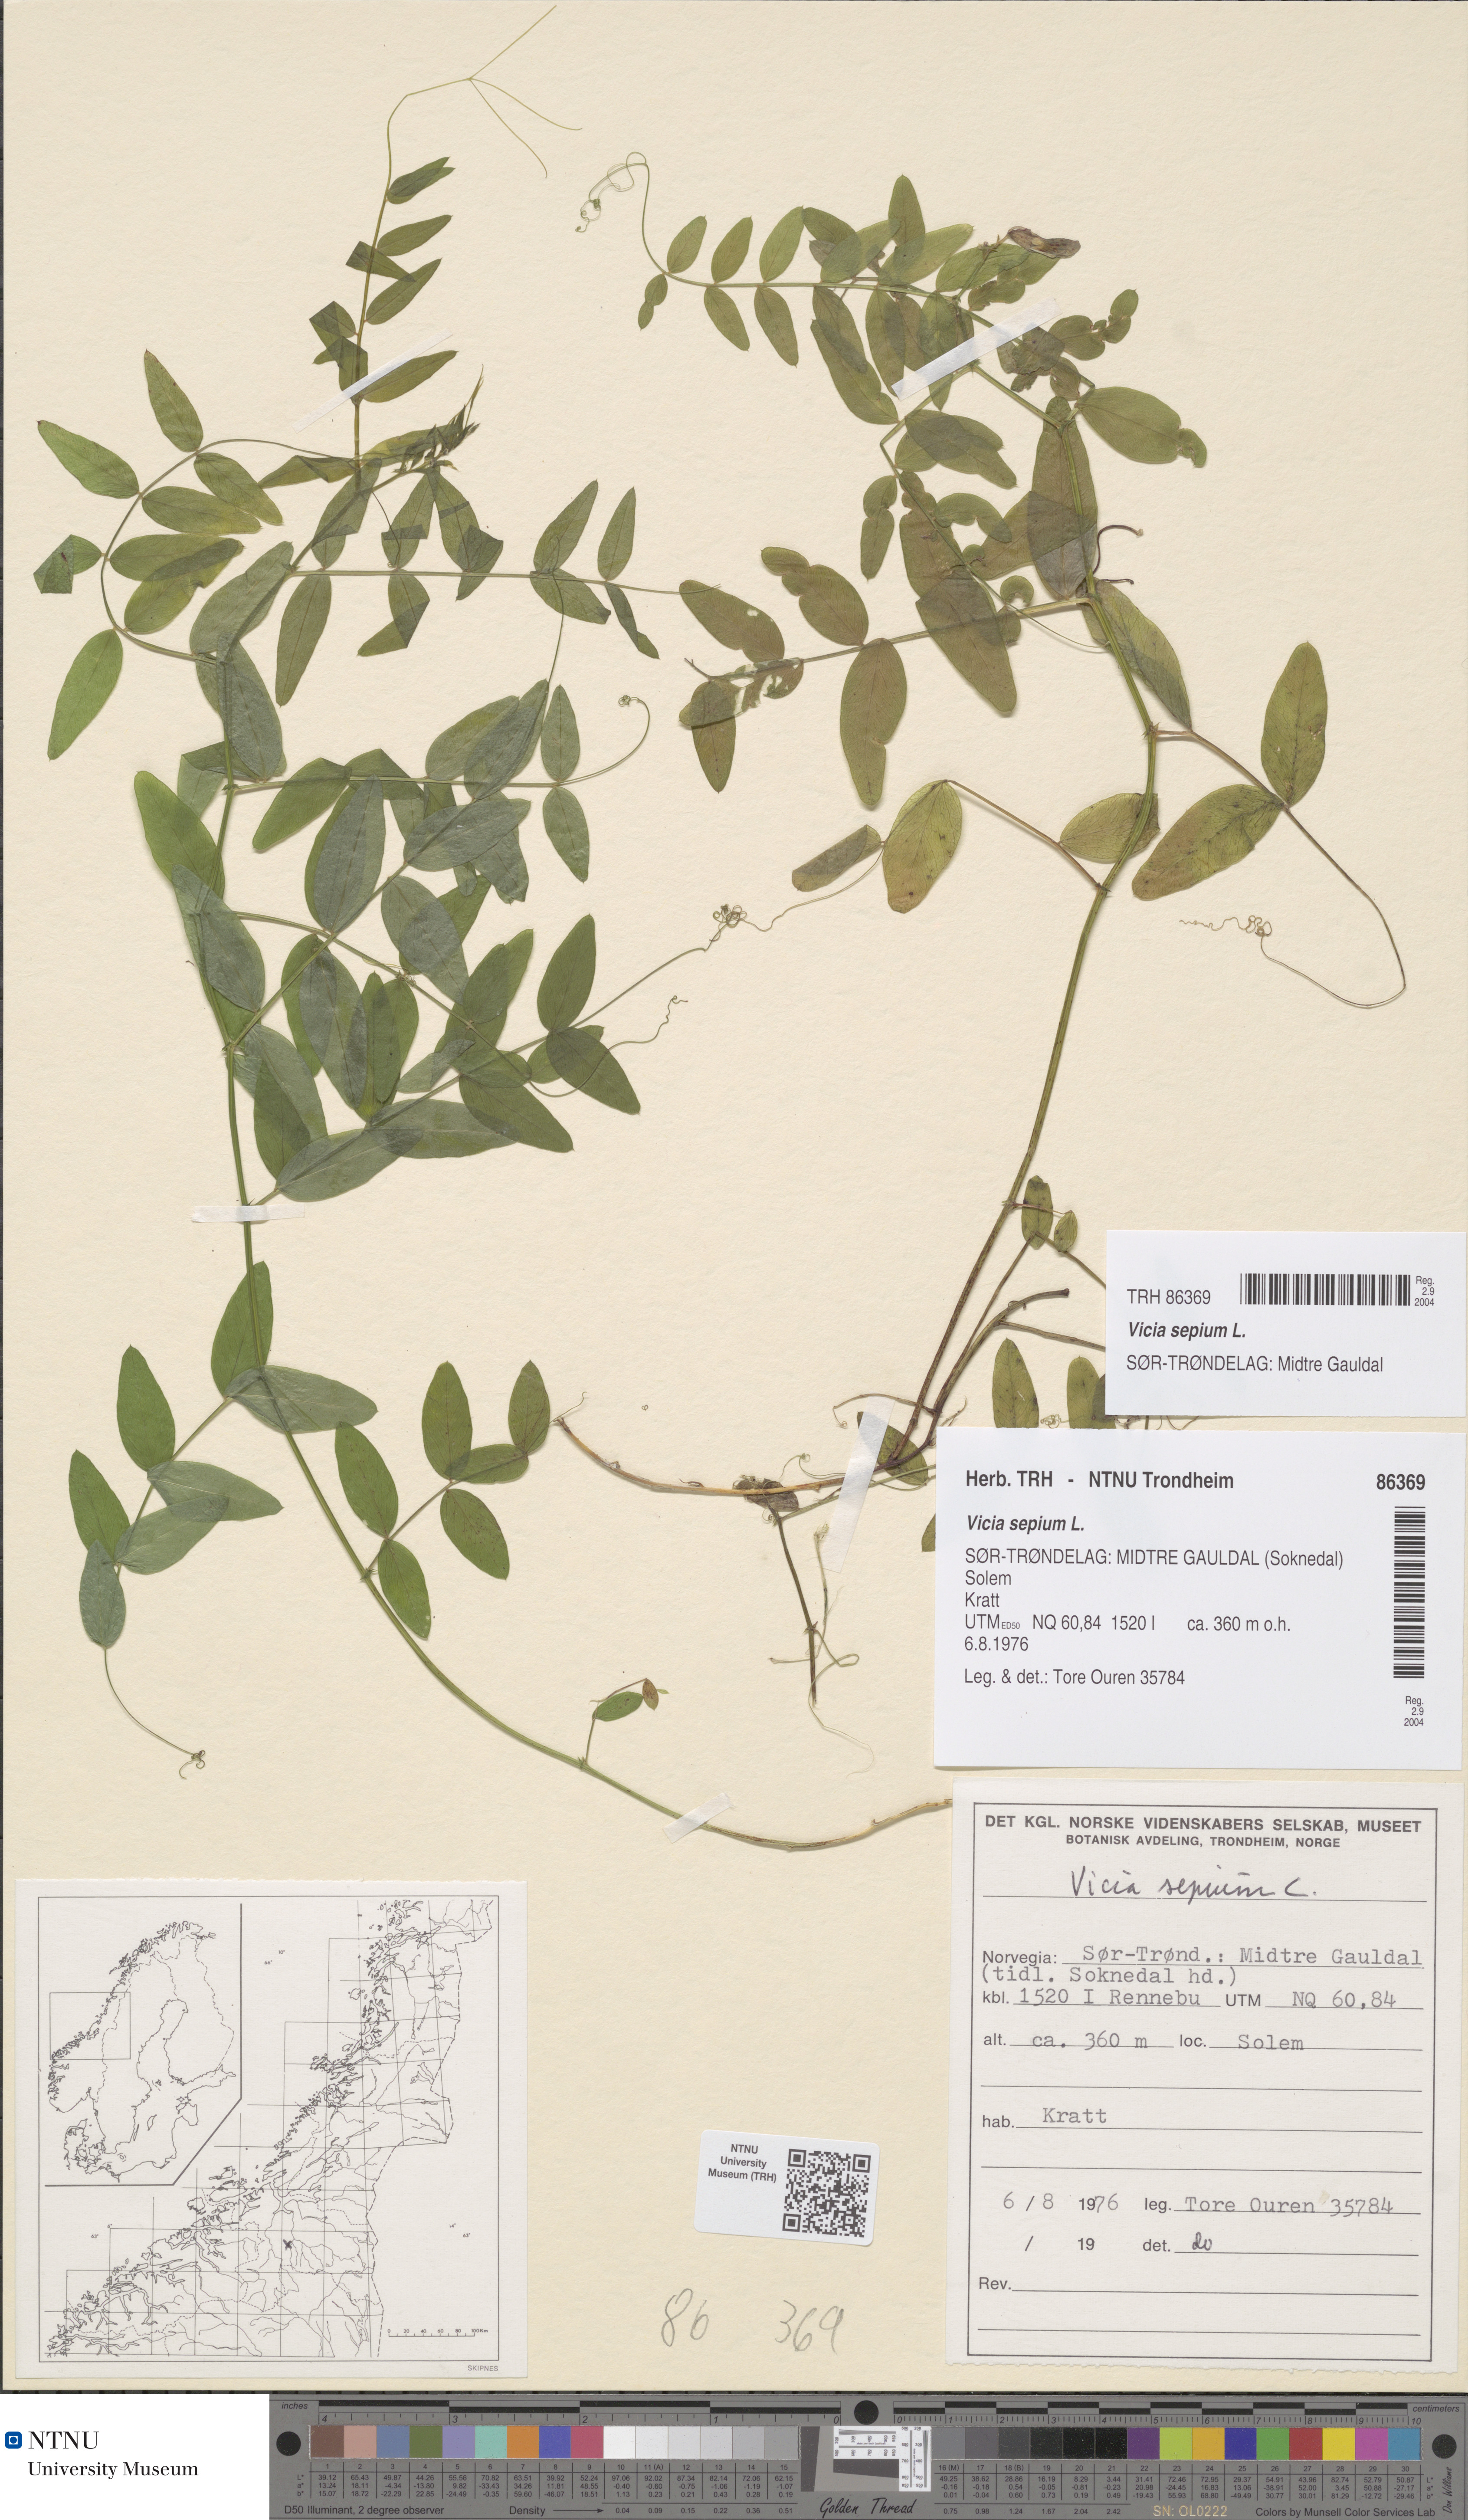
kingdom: Plantae
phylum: Tracheophyta
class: Magnoliopsida
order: Fabales
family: Fabaceae
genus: Vicia
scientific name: Vicia sepium
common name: Bush vetch
